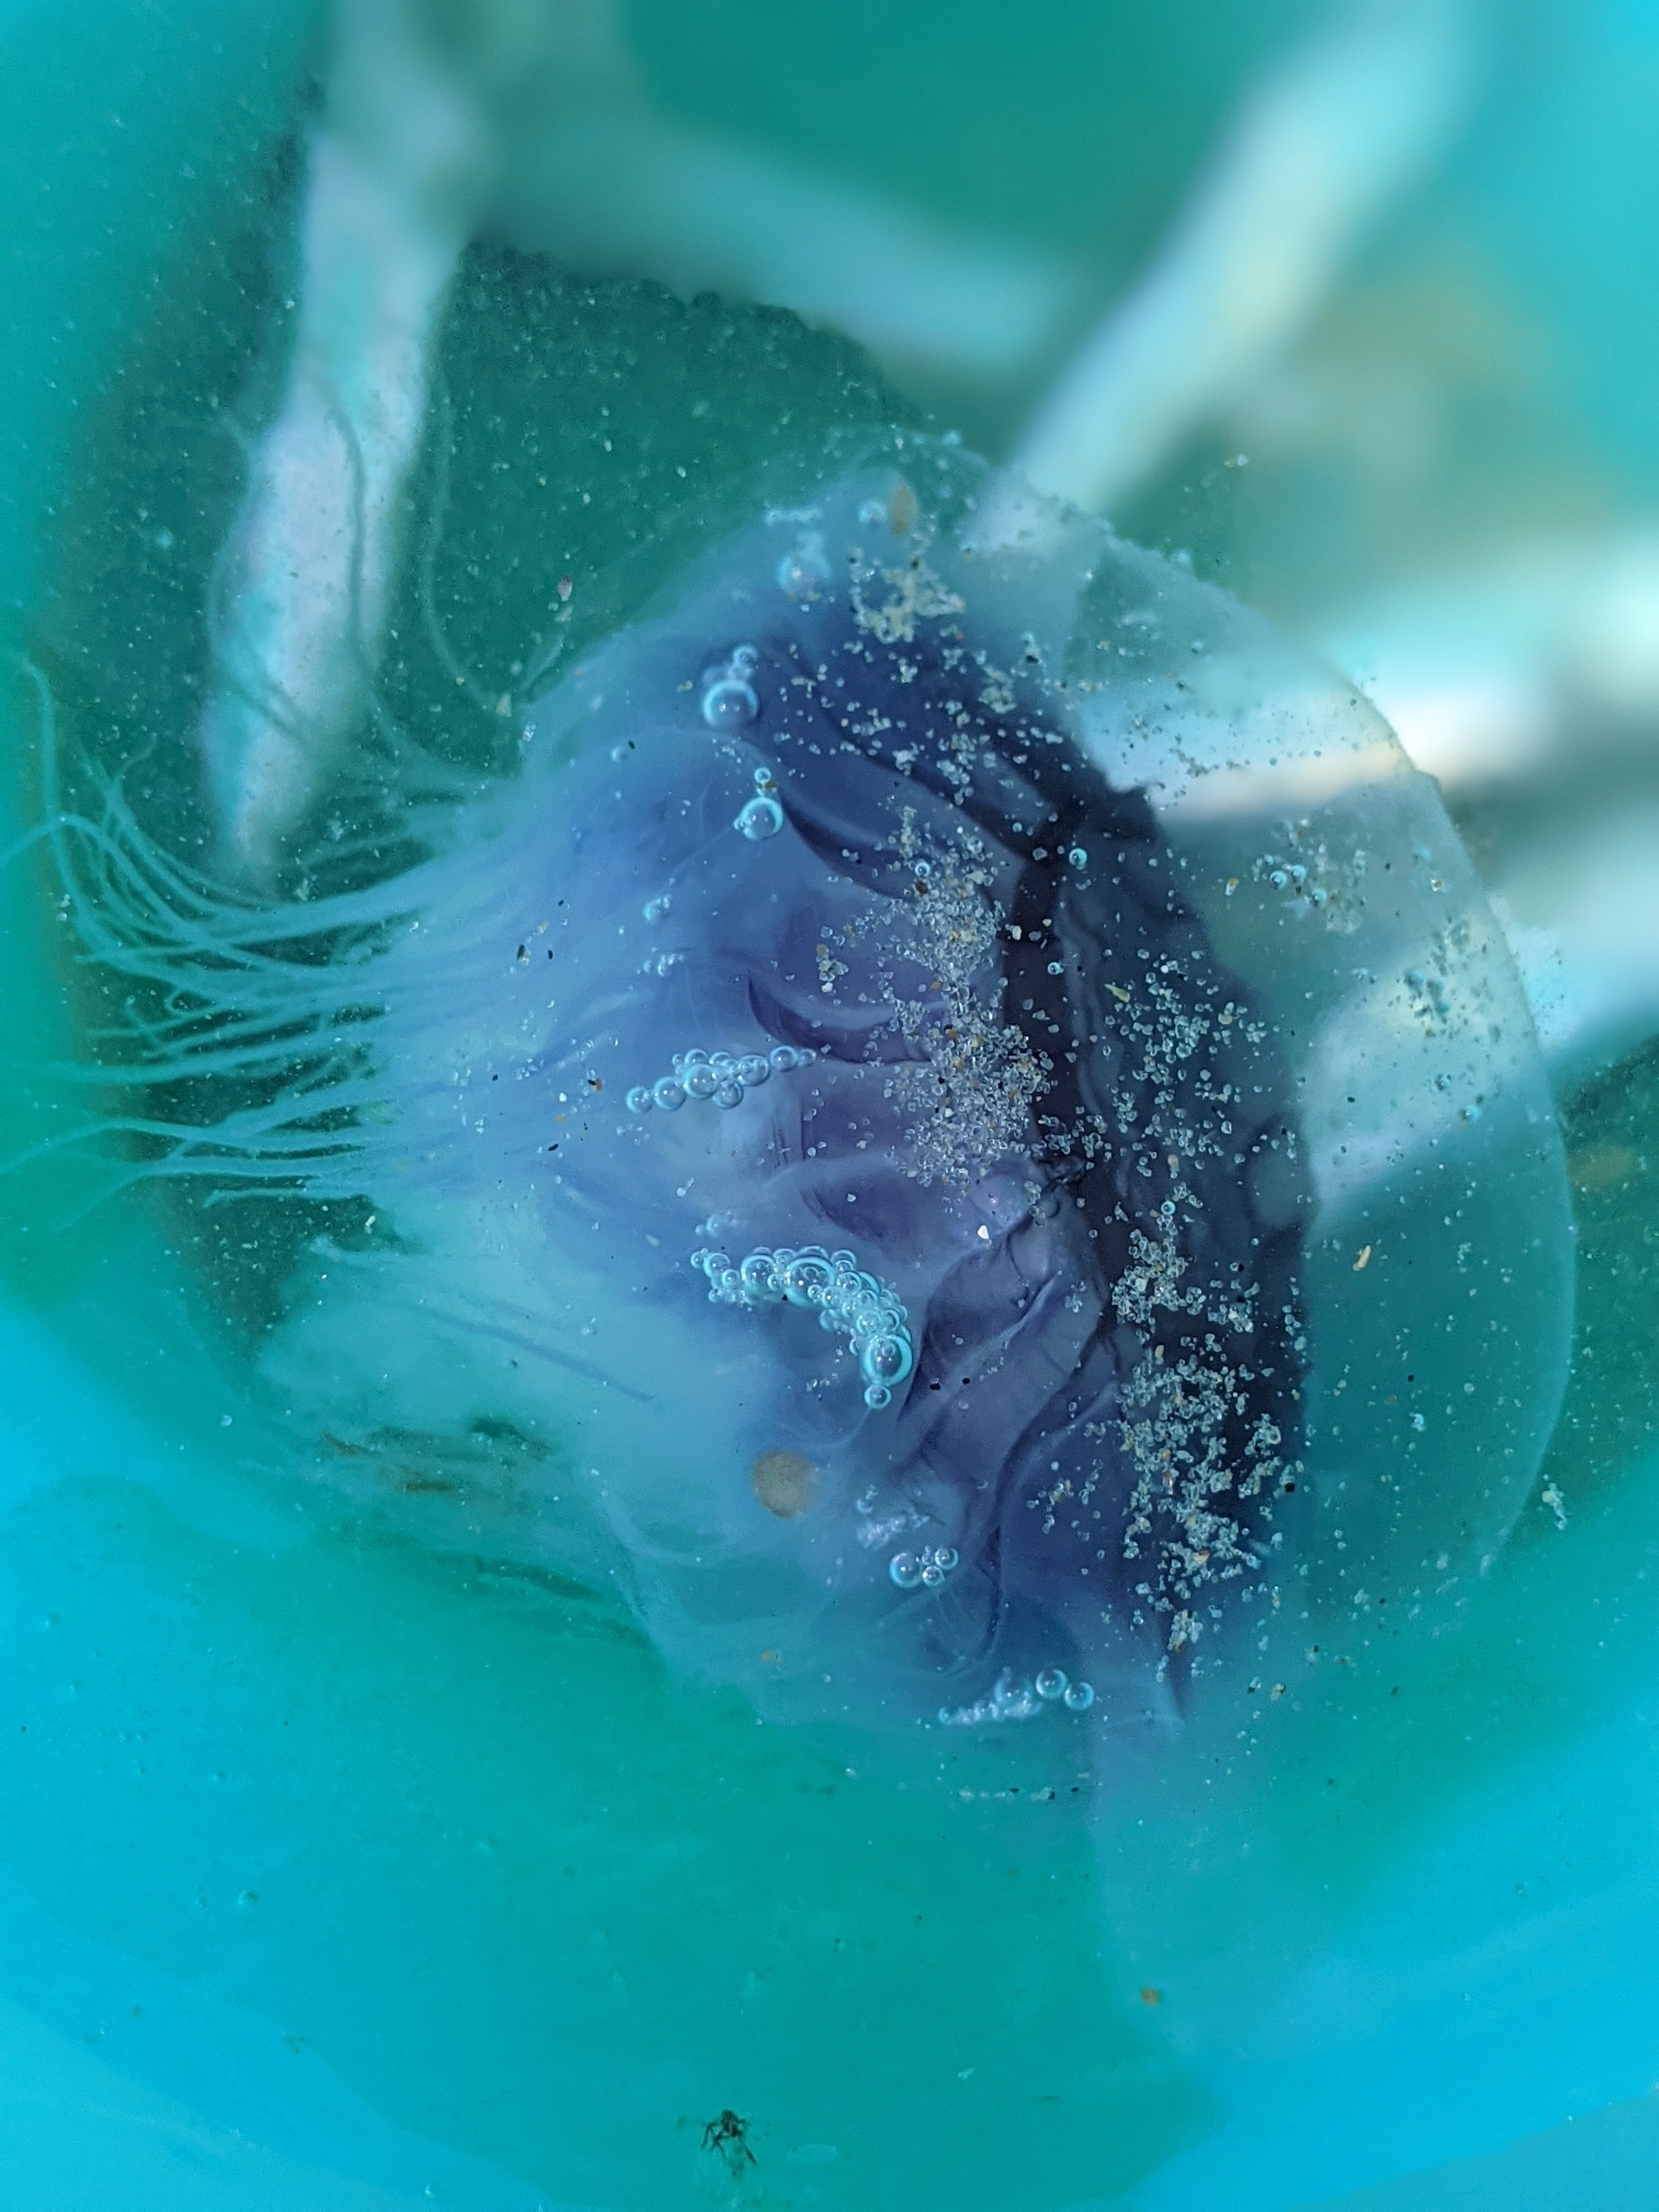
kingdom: Animalia
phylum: Cnidaria
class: Scyphozoa
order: Semaeostomeae
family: Cyaneidae
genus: Cyanea
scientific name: Cyanea lamarckii
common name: Blå brandmand
